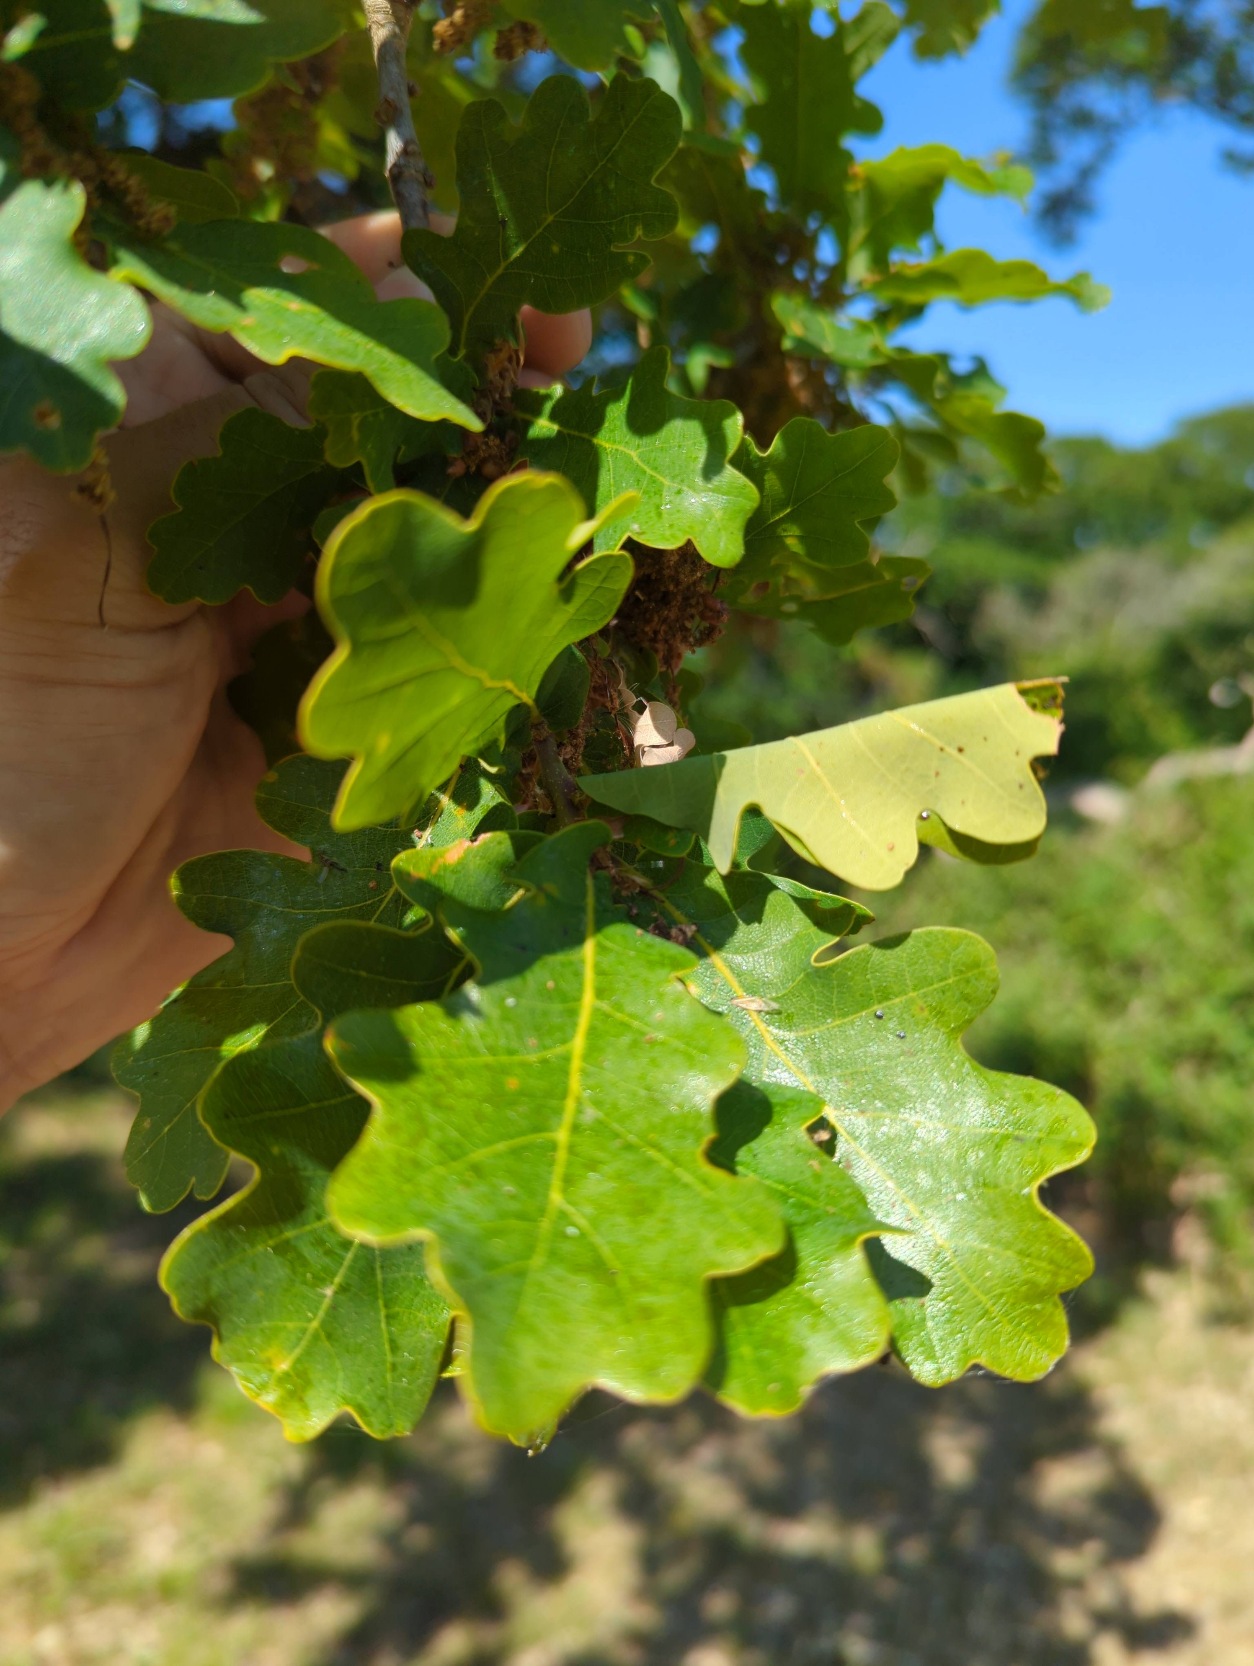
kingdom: Plantae
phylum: Tracheophyta
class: Magnoliopsida
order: Fagales
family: Fagaceae
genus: Quercus
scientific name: Quercus robur
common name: Stilk-eg/almindelig eg
